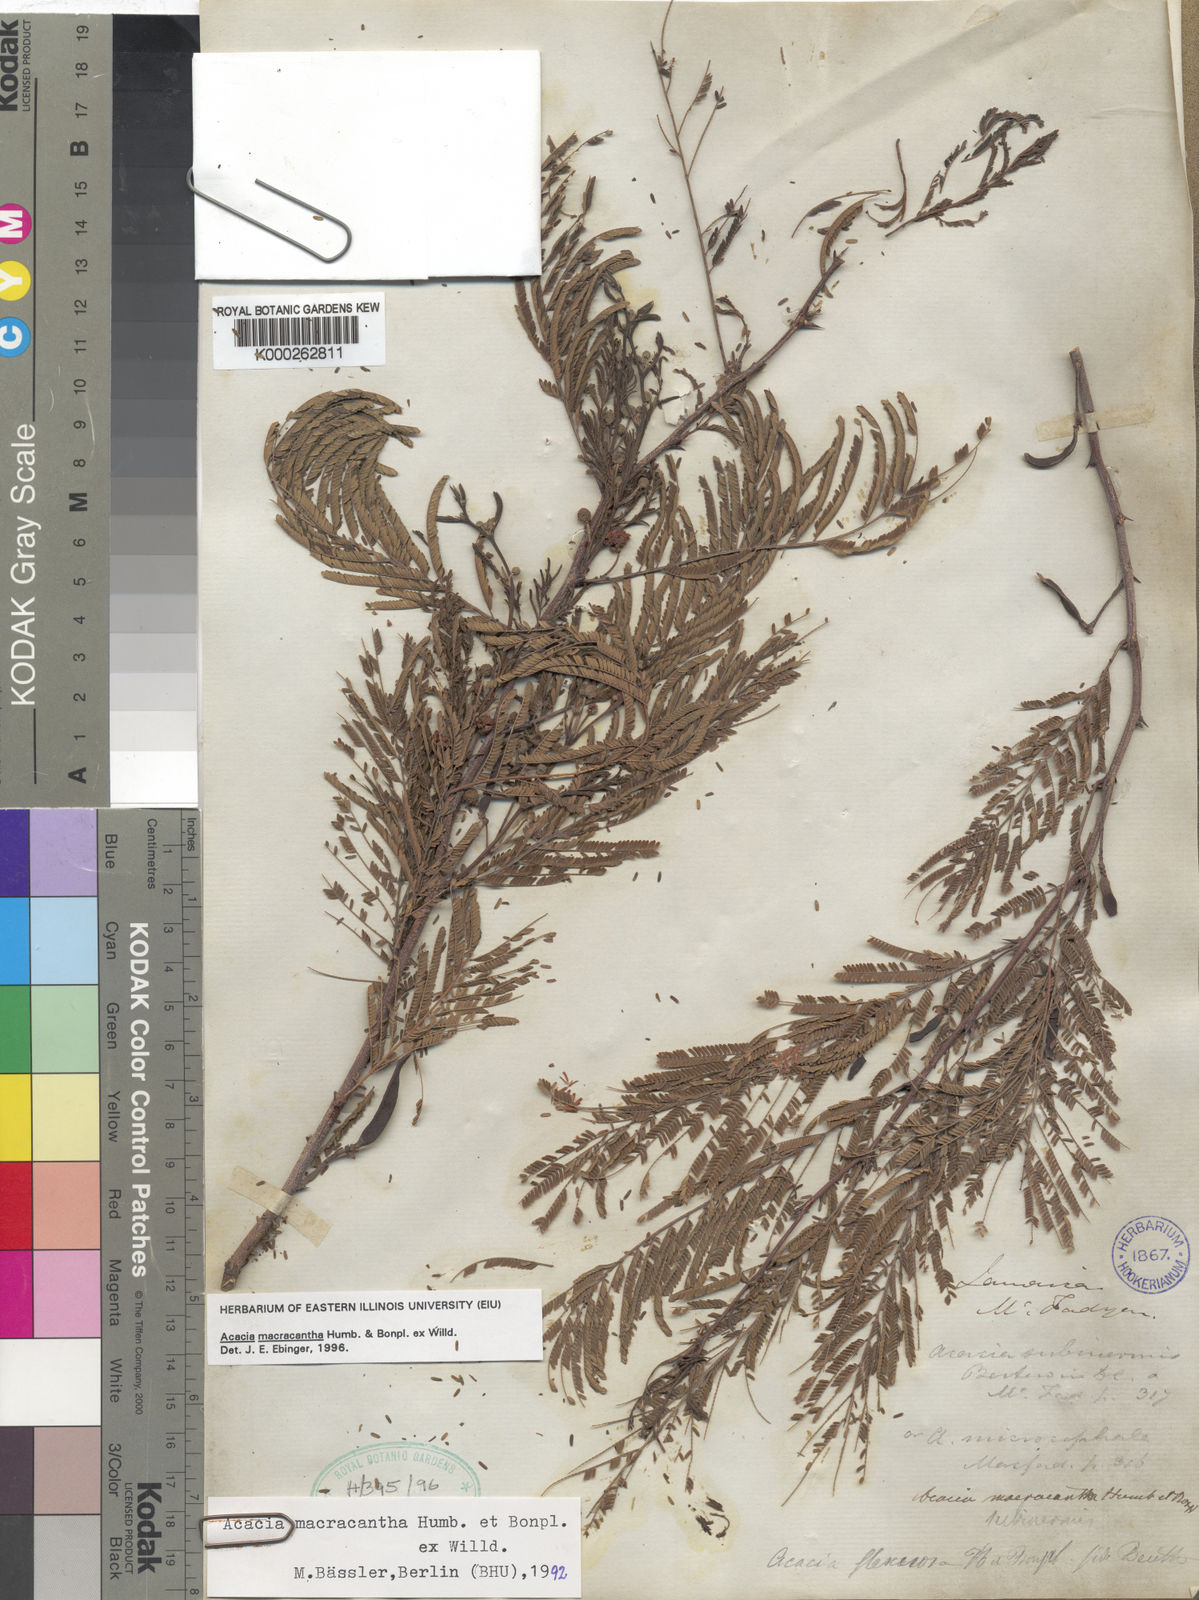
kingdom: Plantae
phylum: Tracheophyta
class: Magnoliopsida
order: Fabales
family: Fabaceae
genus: Vachellia
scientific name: Vachellia macracantha
